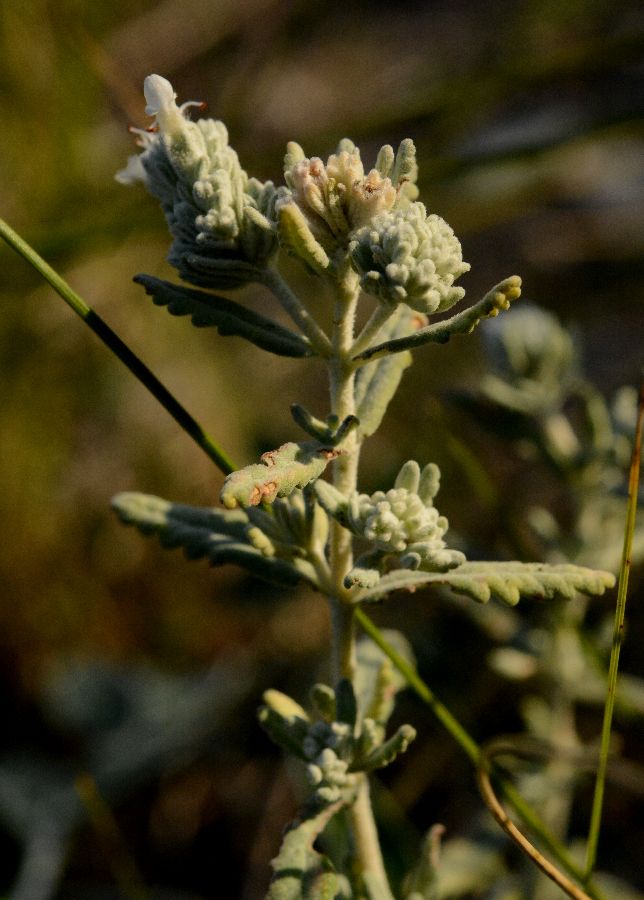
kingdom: Plantae
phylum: Tracheophyta
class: Magnoliopsida
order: Lamiales
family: Lamiaceae
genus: Teucrium
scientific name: Teucrium polium
